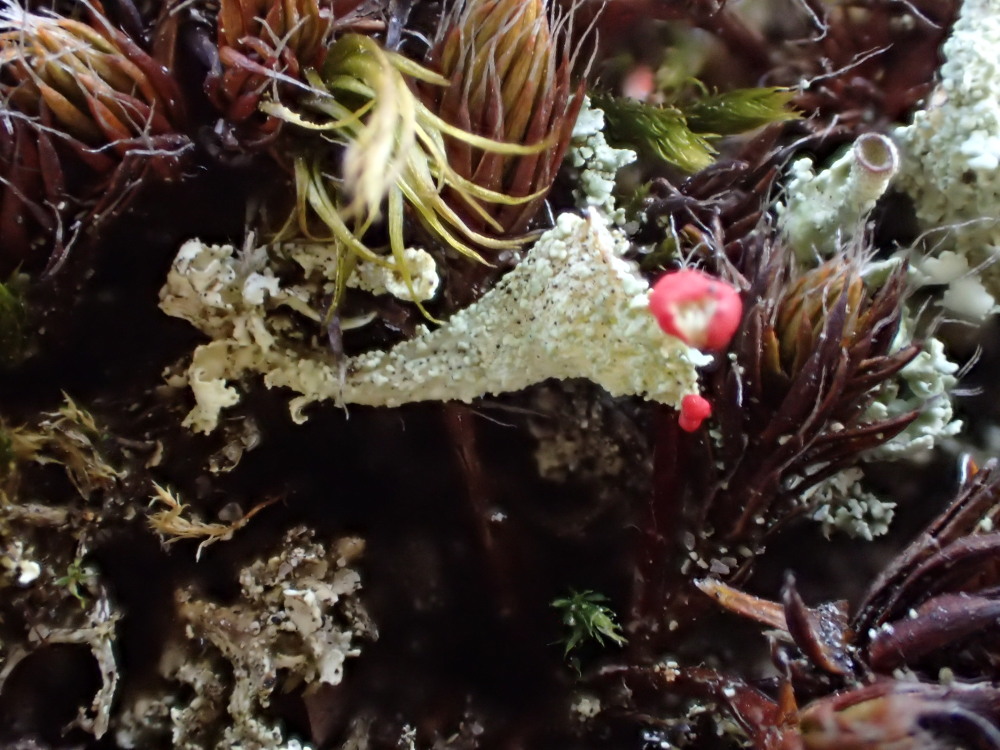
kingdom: Fungi
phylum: Ascomycota
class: Lecanoromycetes
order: Lecanorales
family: Cladoniaceae
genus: Cladonia
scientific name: Cladonia diversa
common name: rød bægerlav
